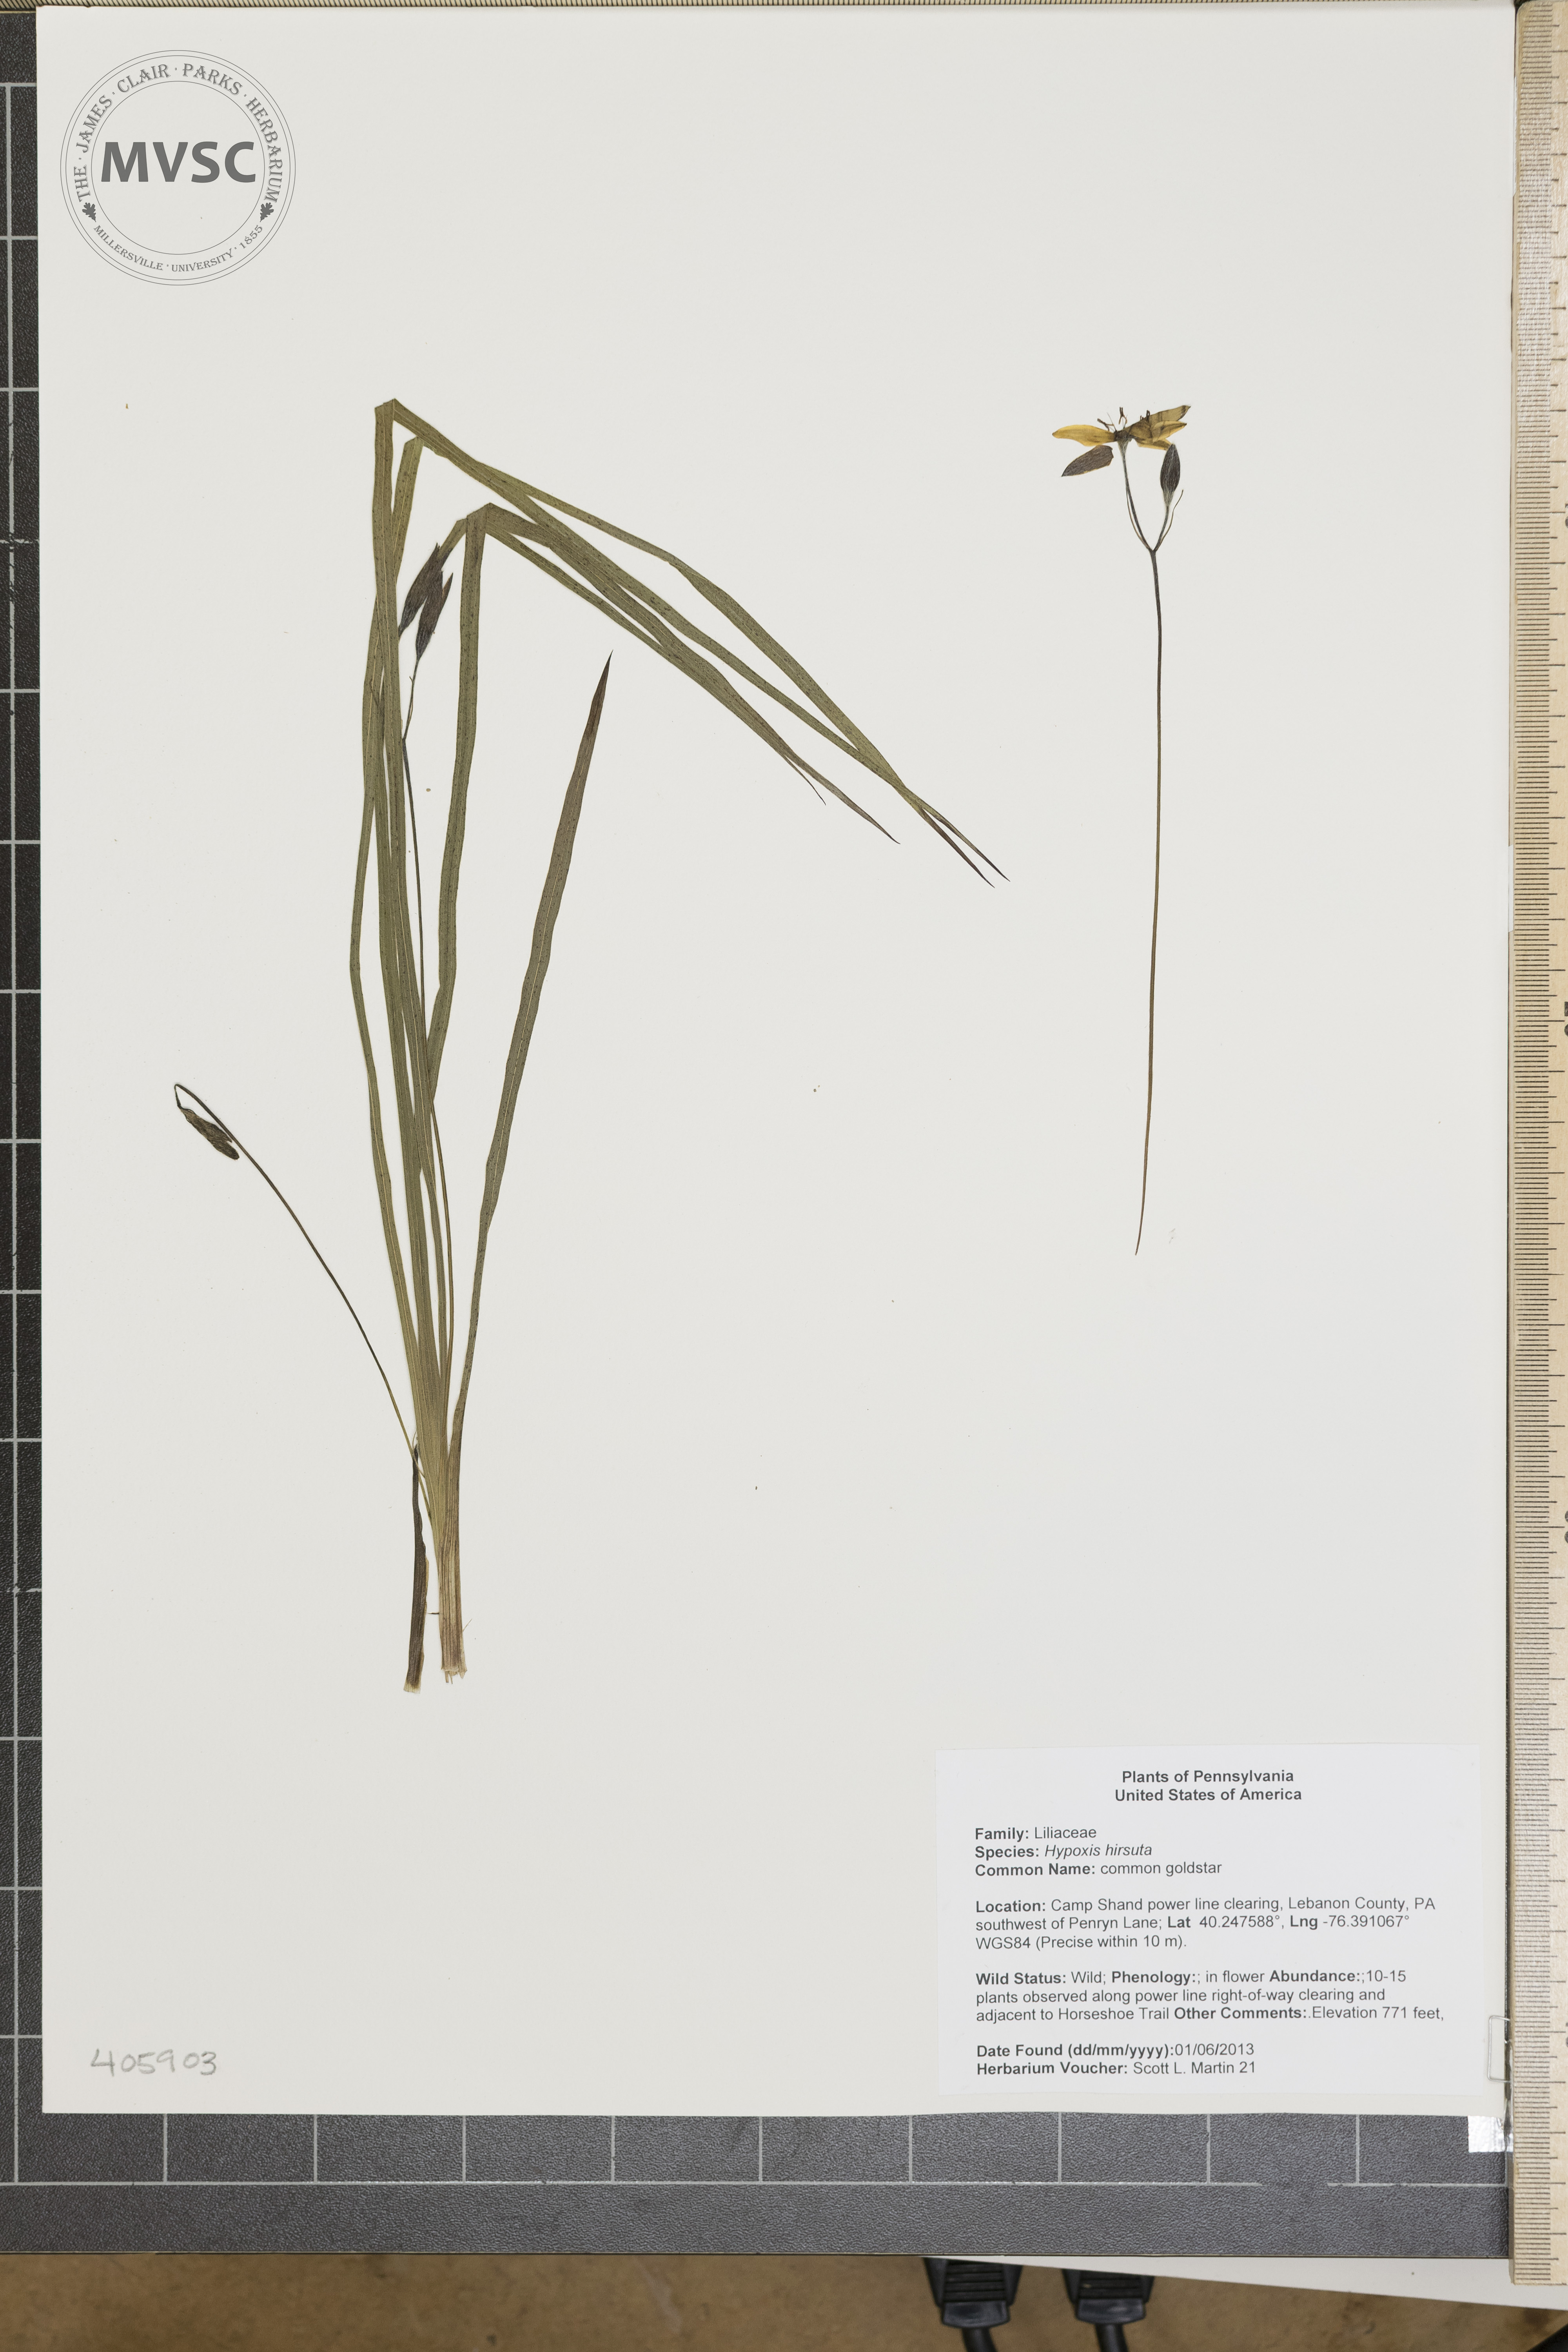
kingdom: Plantae
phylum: Tracheophyta
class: Liliopsida
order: Asparagales
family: Hypoxidaceae
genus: Hypoxis
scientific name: Hypoxis hirsuta
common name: common goldstar
